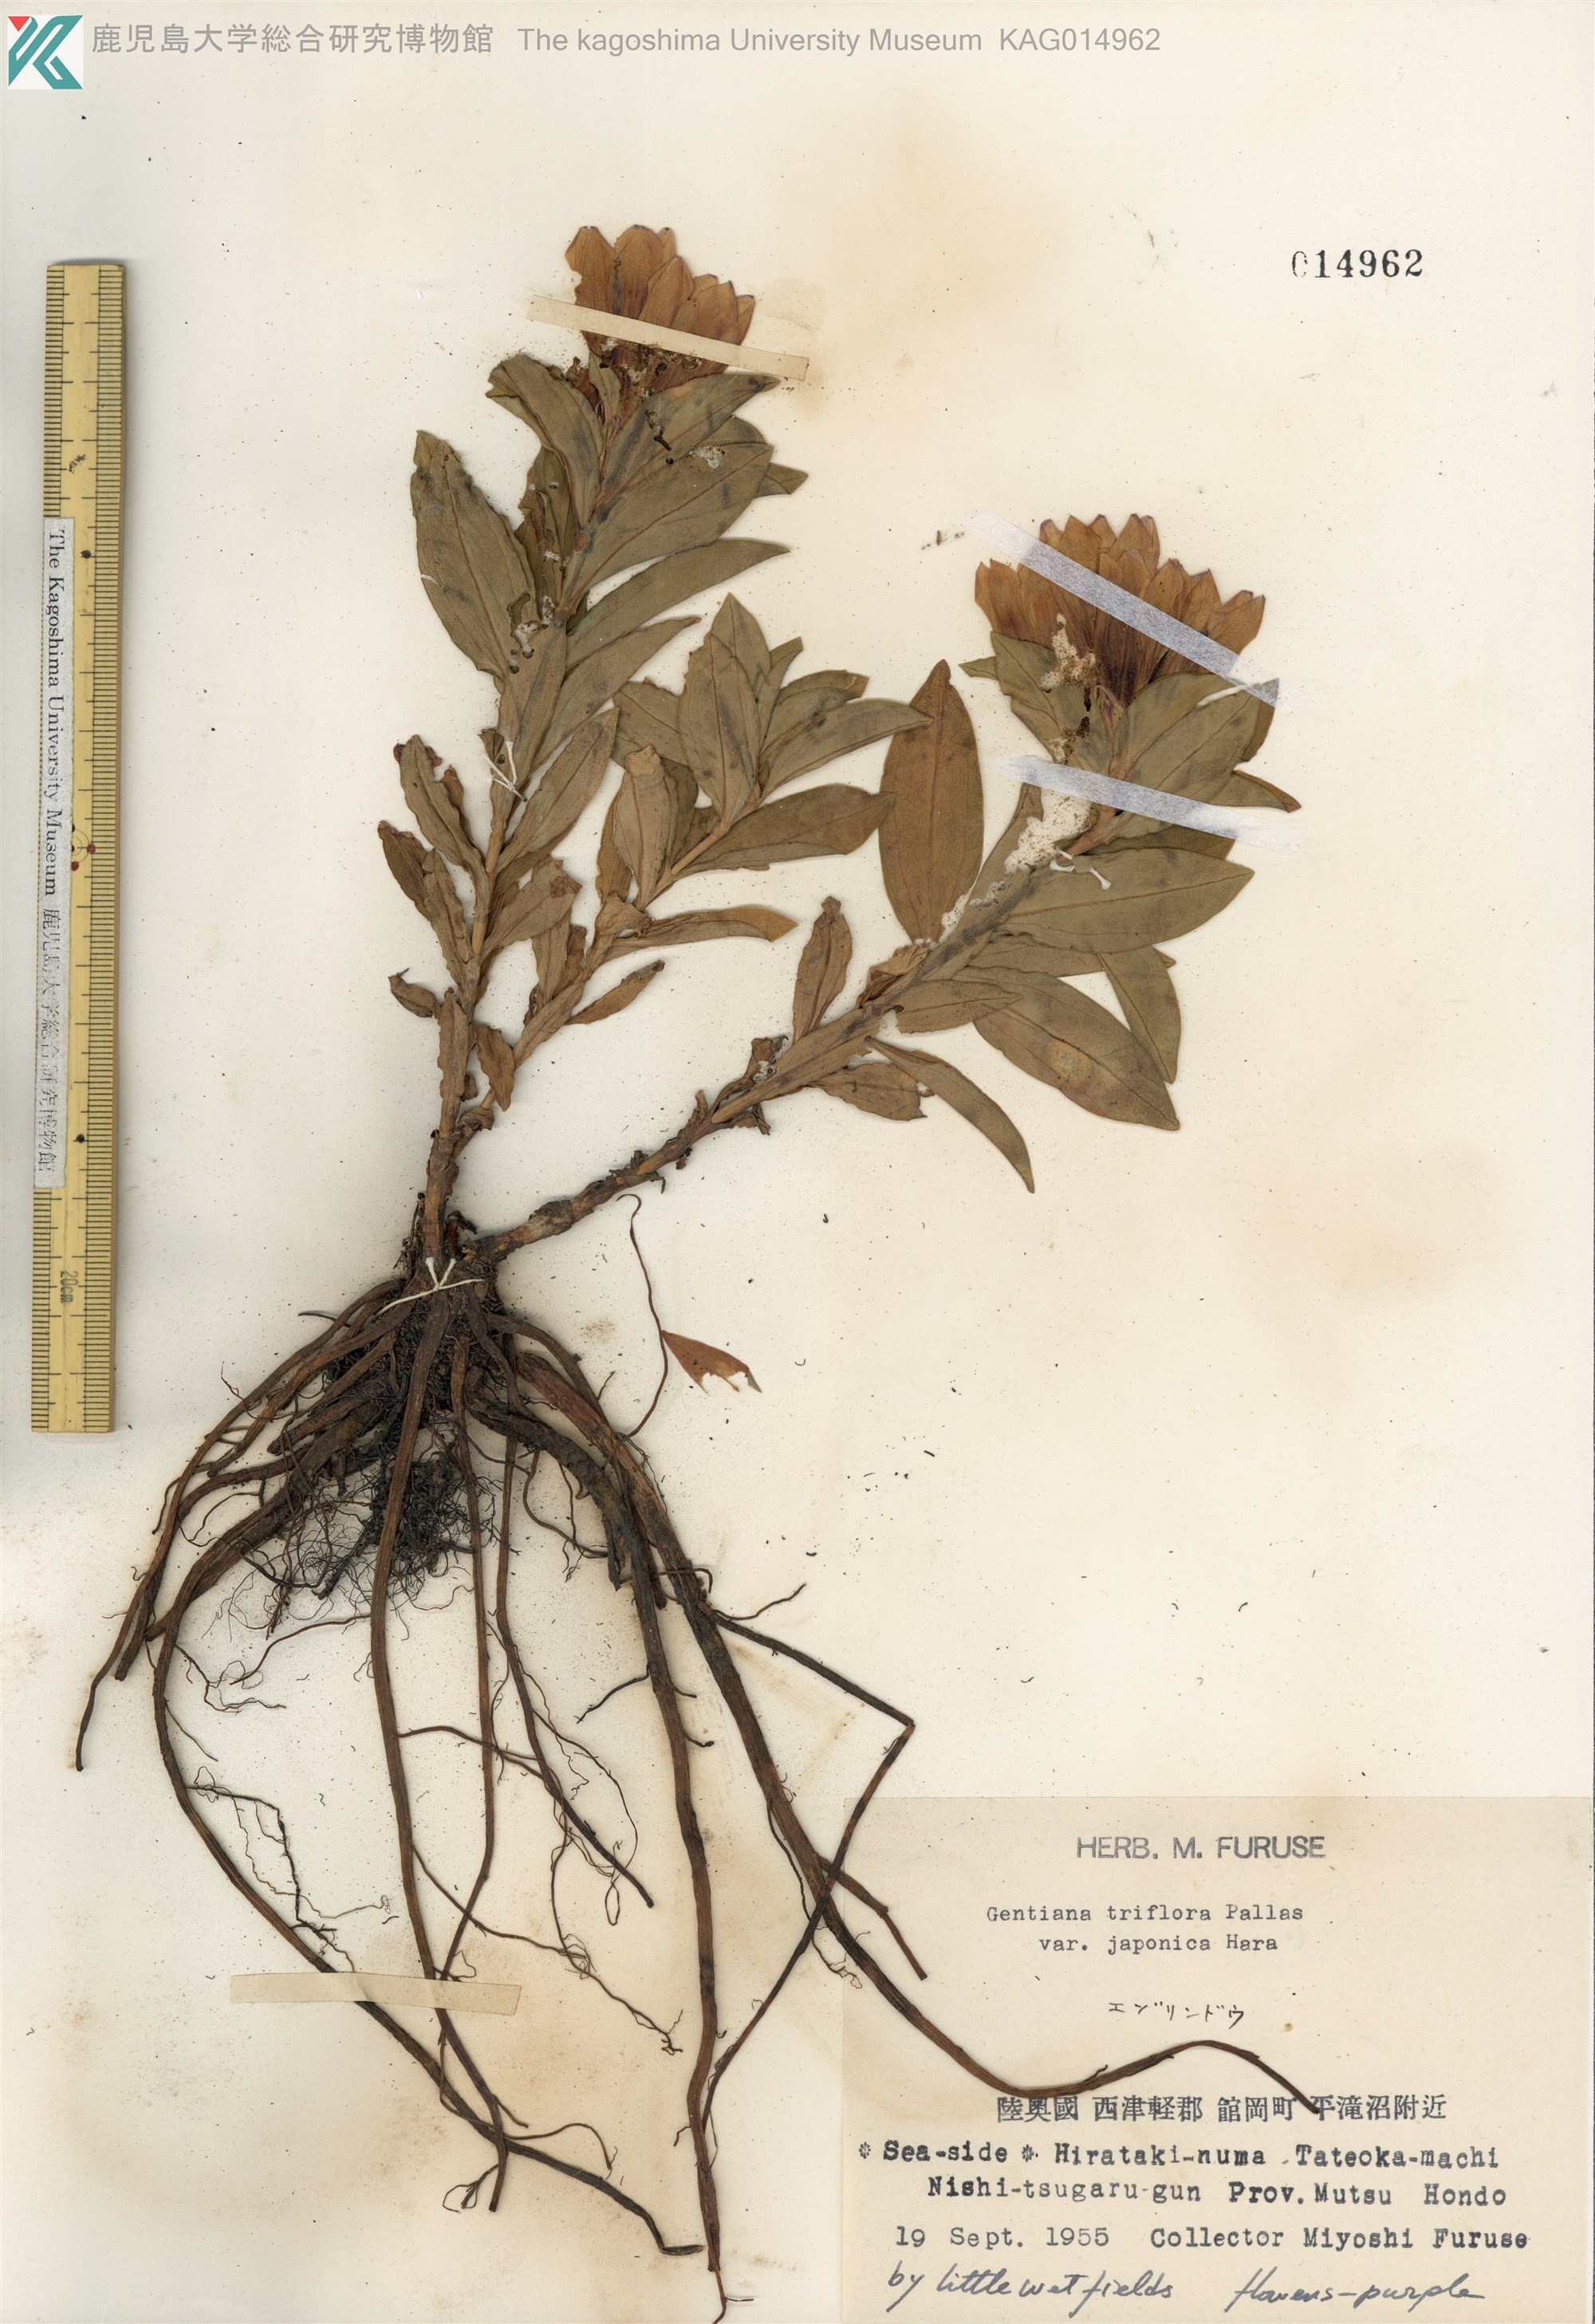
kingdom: Plantae
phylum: Tracheophyta
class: Magnoliopsida
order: Gentianales
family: Gentianaceae
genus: Gentiana
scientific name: Gentiana triflora
